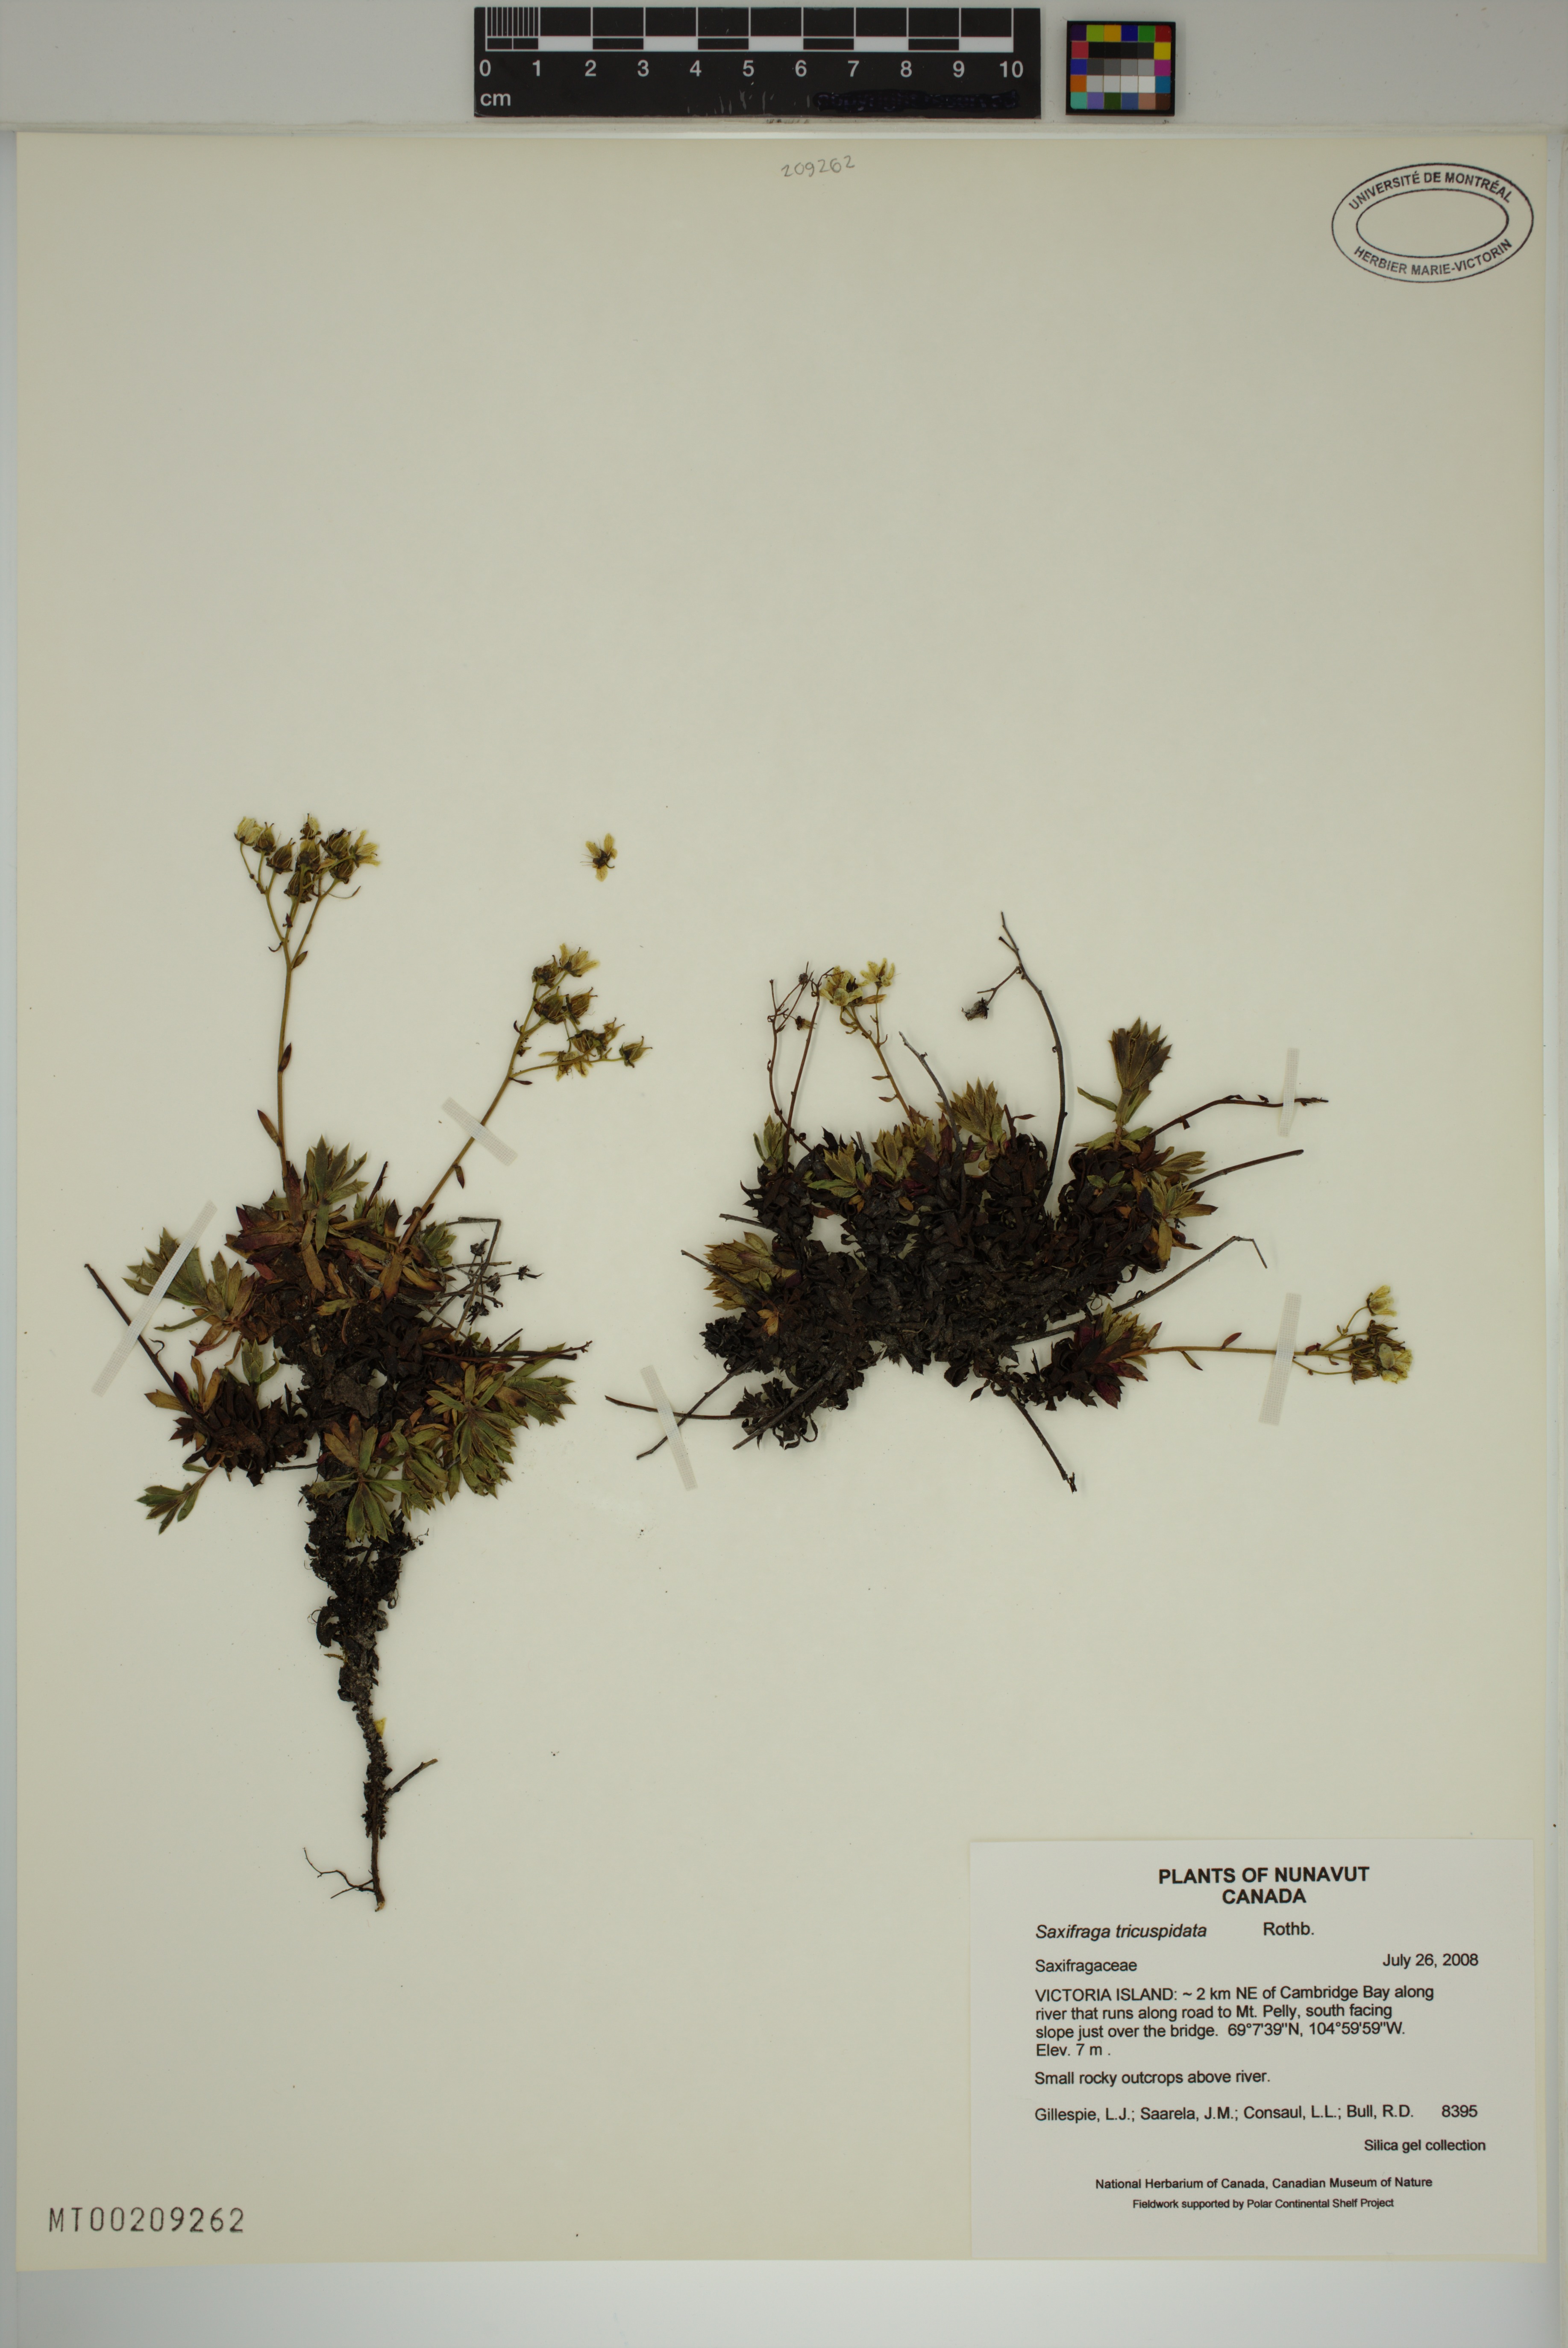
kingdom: Plantae
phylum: Tracheophyta
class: Magnoliopsida
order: Saxifragales
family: Saxifragaceae
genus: Saxifraga
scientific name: Saxifraga tricuspidata
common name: Prickly saxifrage
